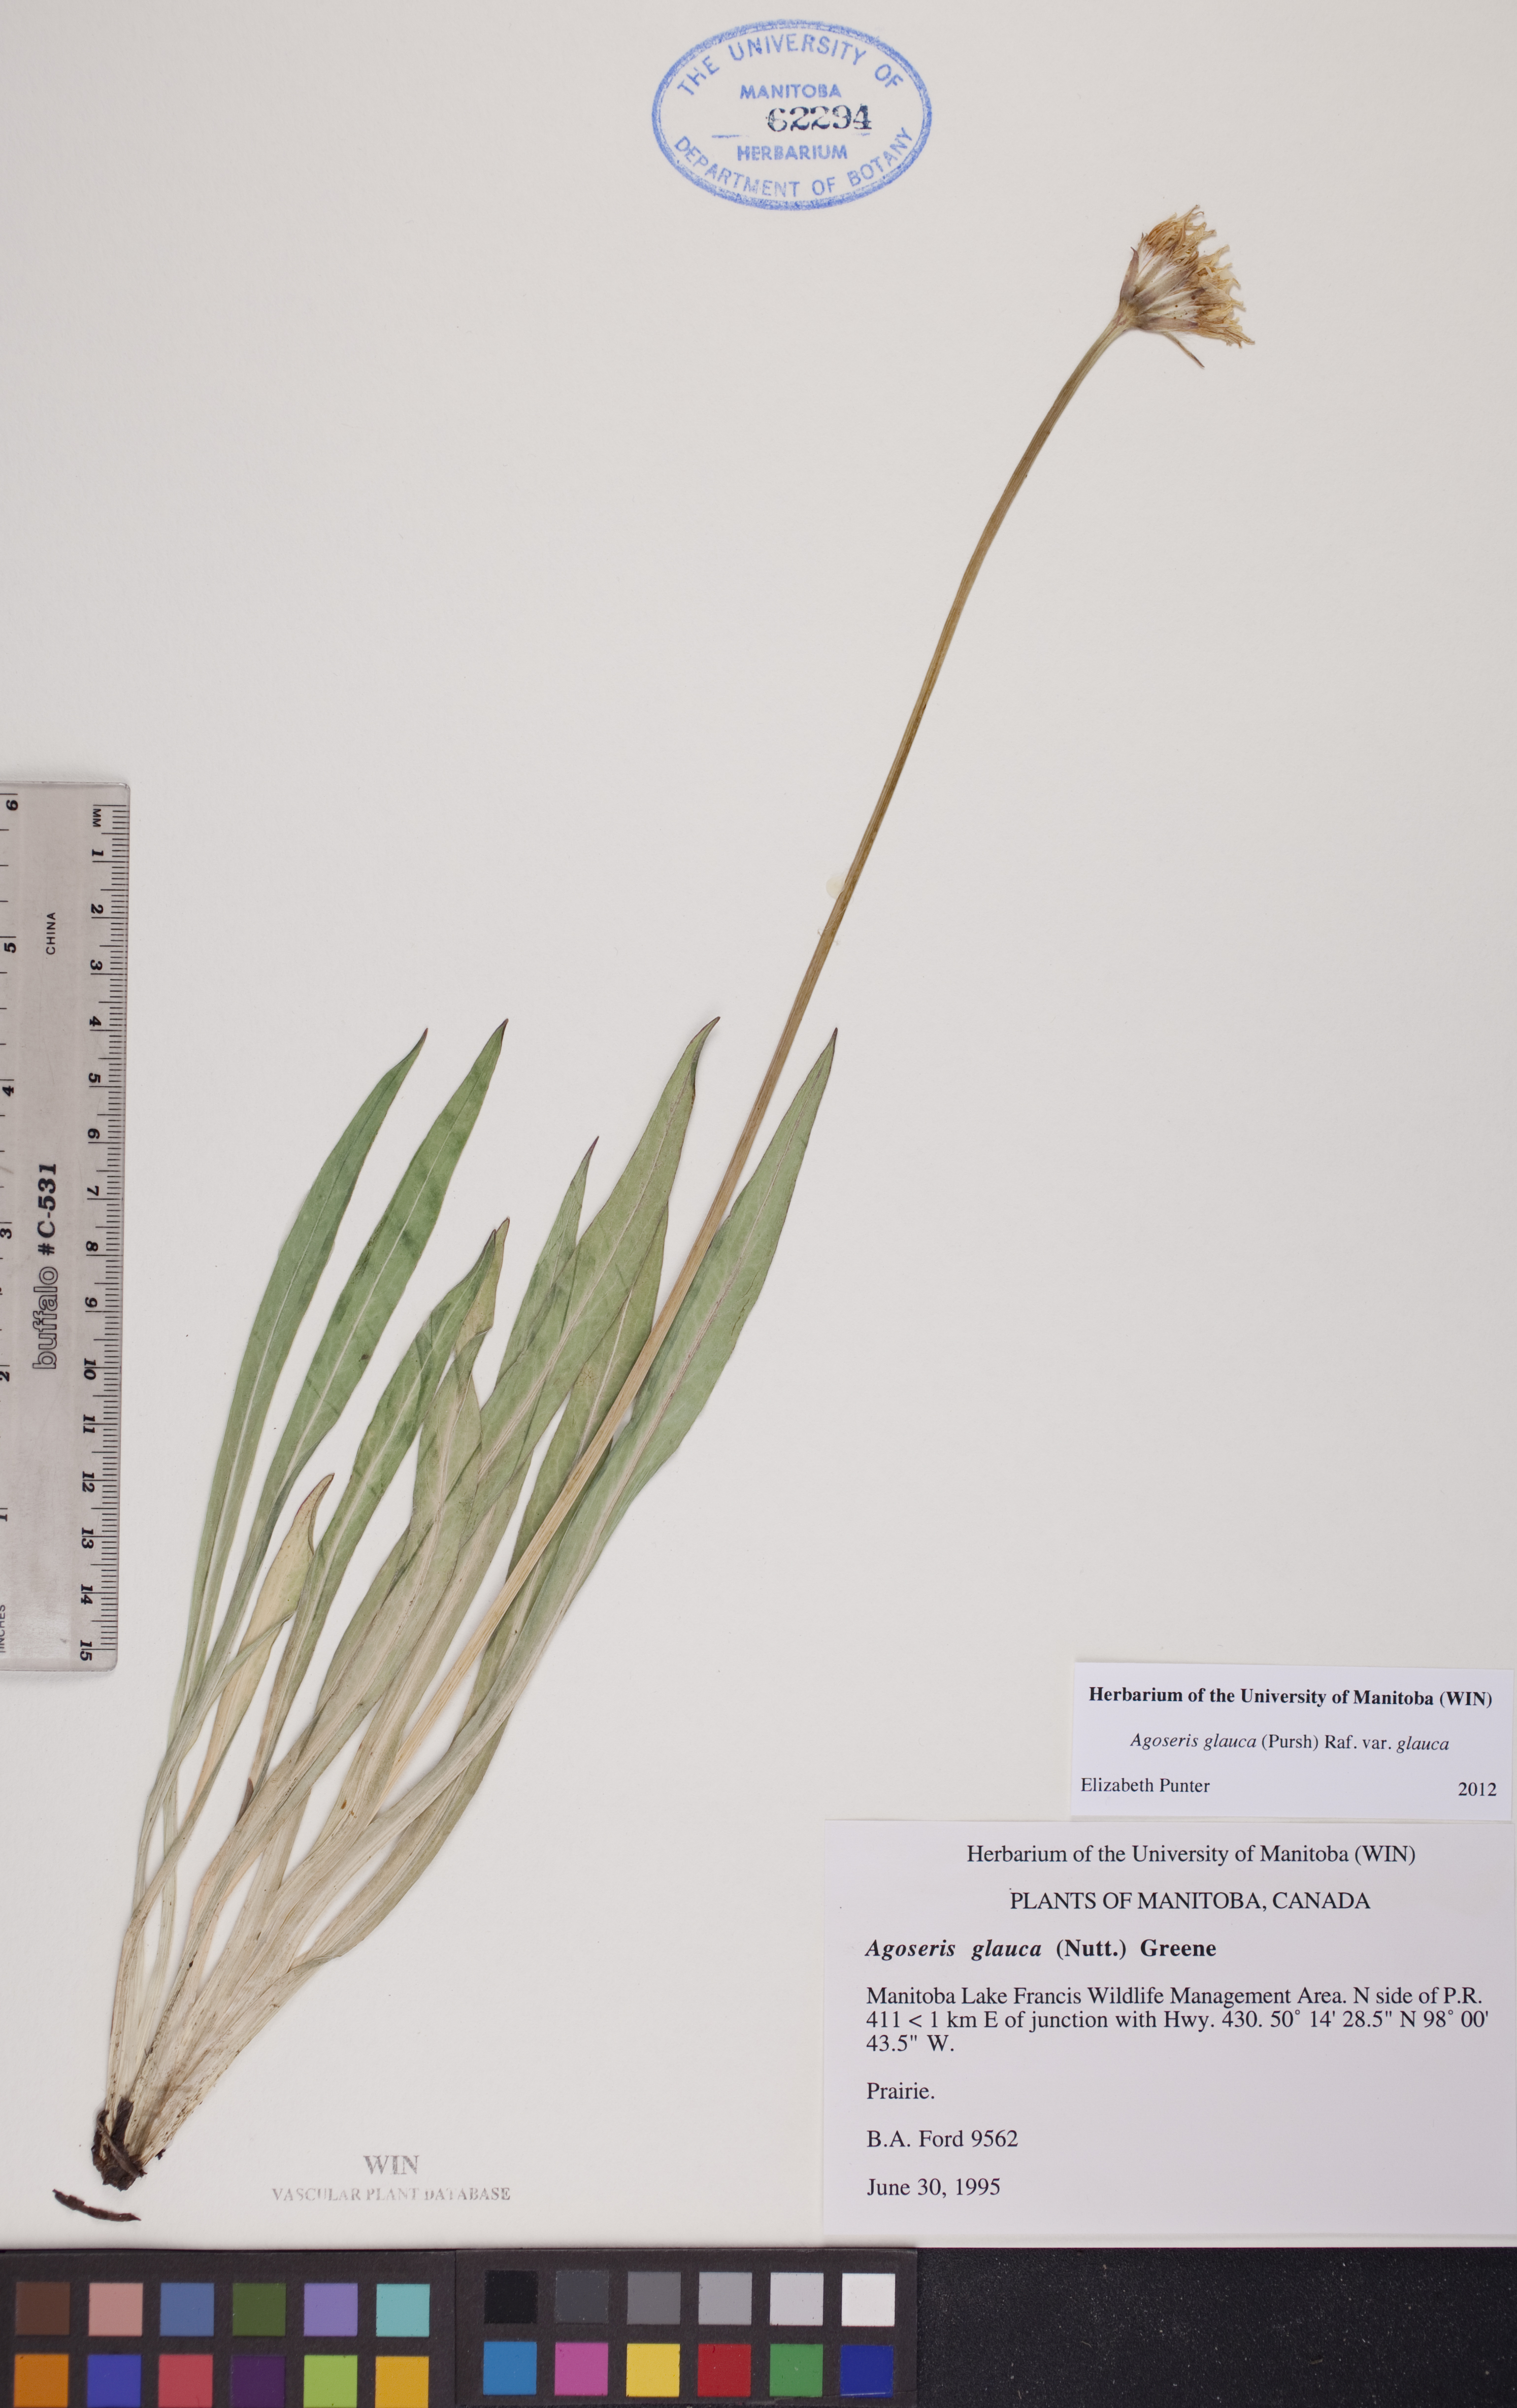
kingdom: Plantae
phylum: Tracheophyta
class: Magnoliopsida
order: Asterales
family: Asteraceae
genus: Agoseris
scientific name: Agoseris glauca
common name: Prairie agoseris
